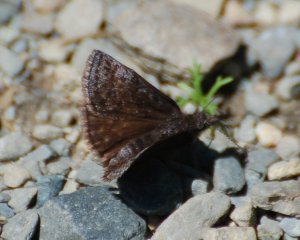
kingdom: Animalia
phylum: Arthropoda
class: Insecta
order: Lepidoptera
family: Hesperiidae
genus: Erynnis
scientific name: Erynnis icelus
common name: Dreamy Duskywing
